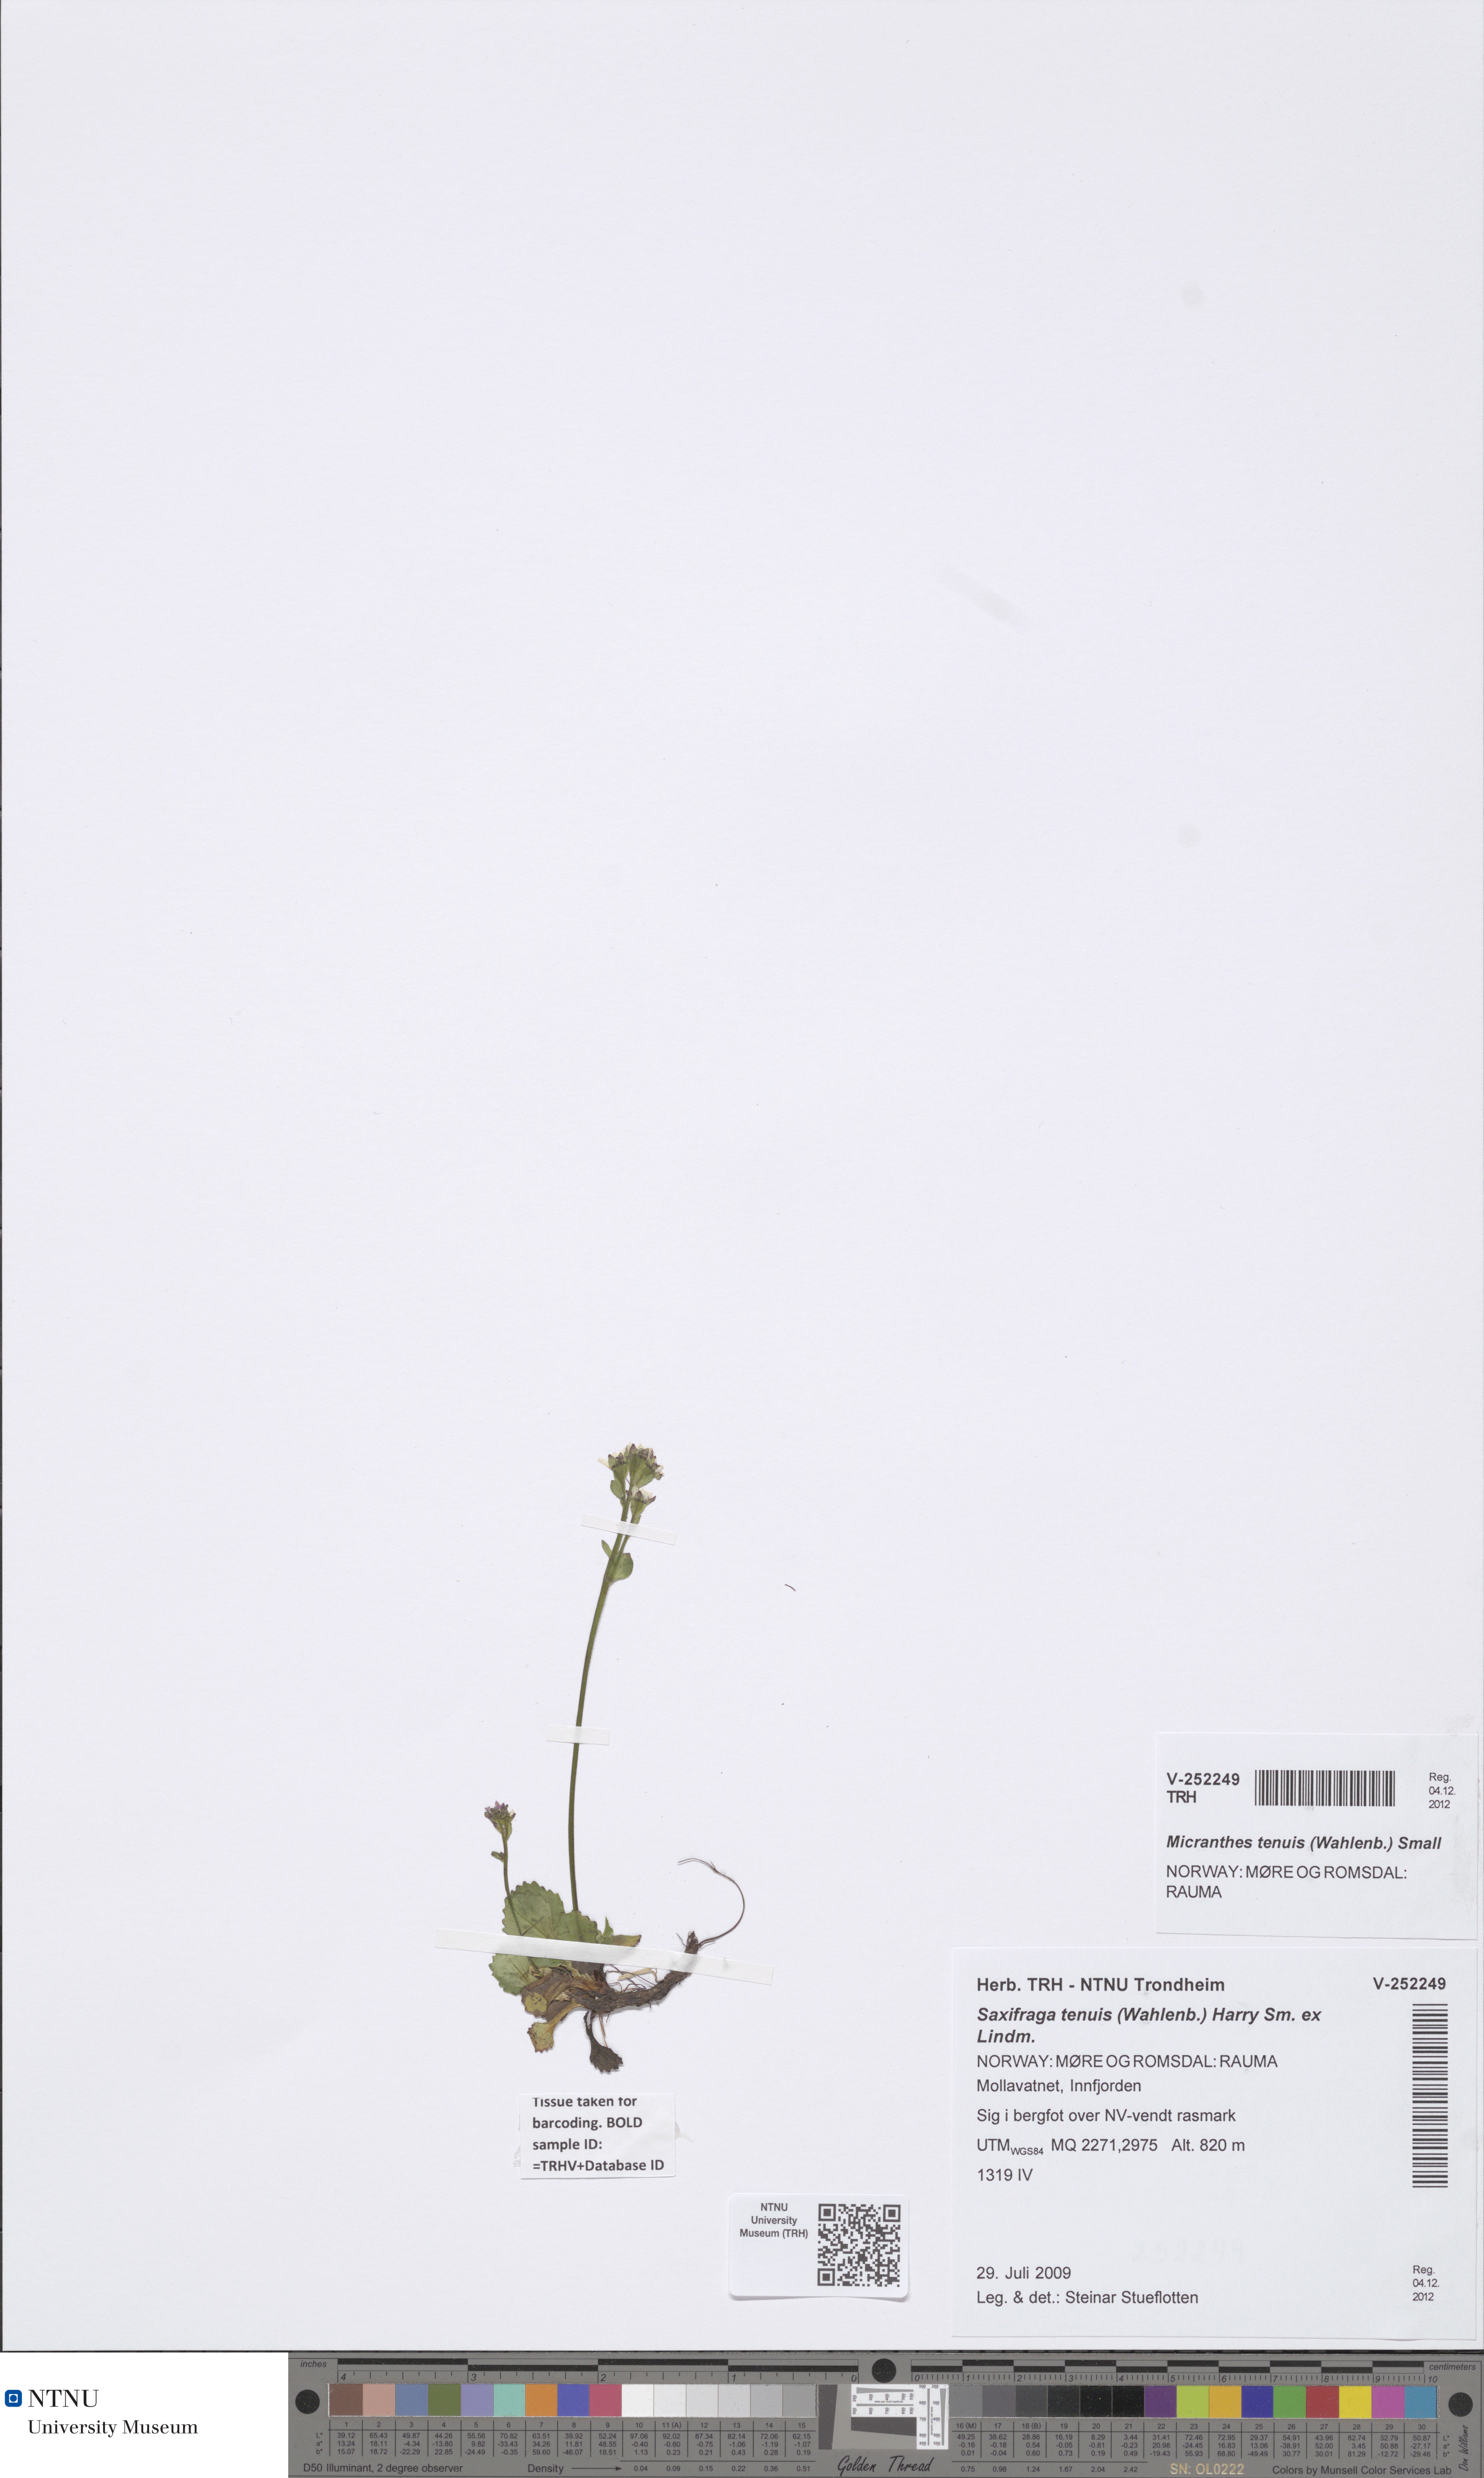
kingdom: Plantae
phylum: Tracheophyta
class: Magnoliopsida
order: Saxifragales
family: Saxifragaceae
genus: Micranthes
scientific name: Micranthes tenuis
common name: Ottertail pass saxifrage
